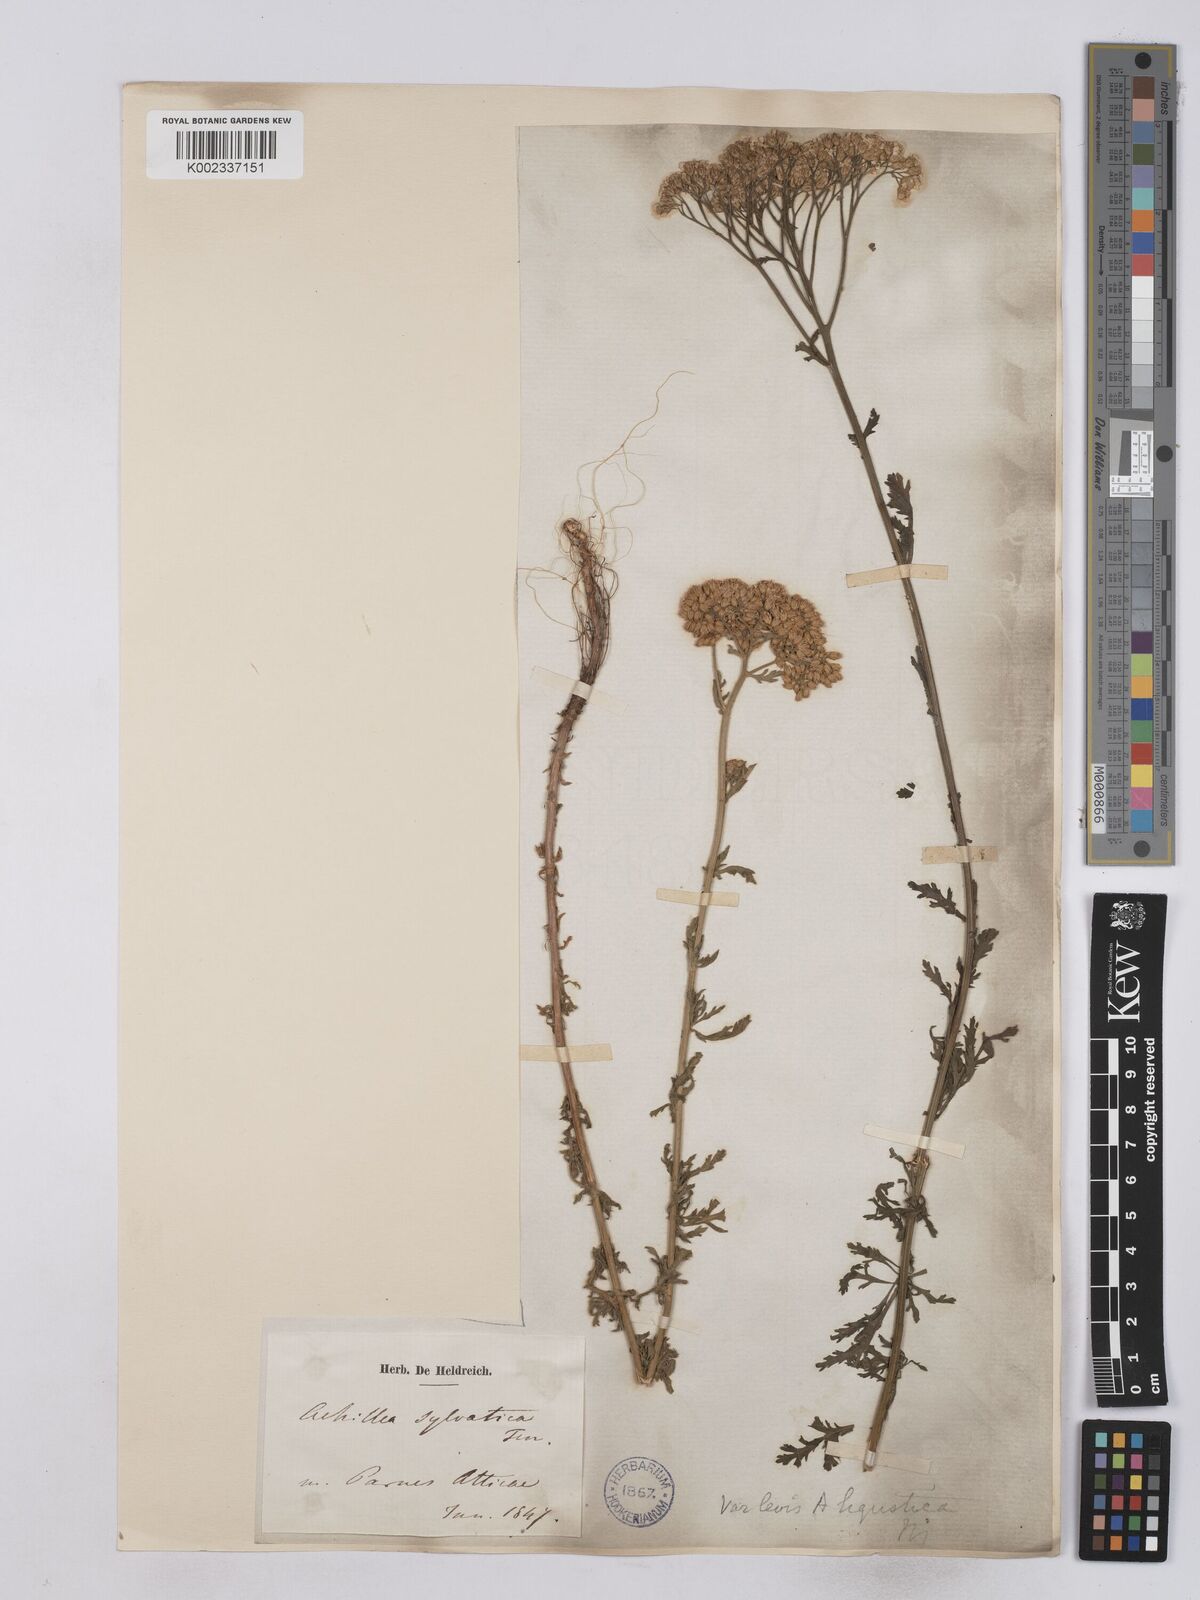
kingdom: Plantae
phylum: Tracheophyta
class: Magnoliopsida
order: Asterales
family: Asteraceae
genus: Achillea
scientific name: Achillea ligustica
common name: Southern yarrow
